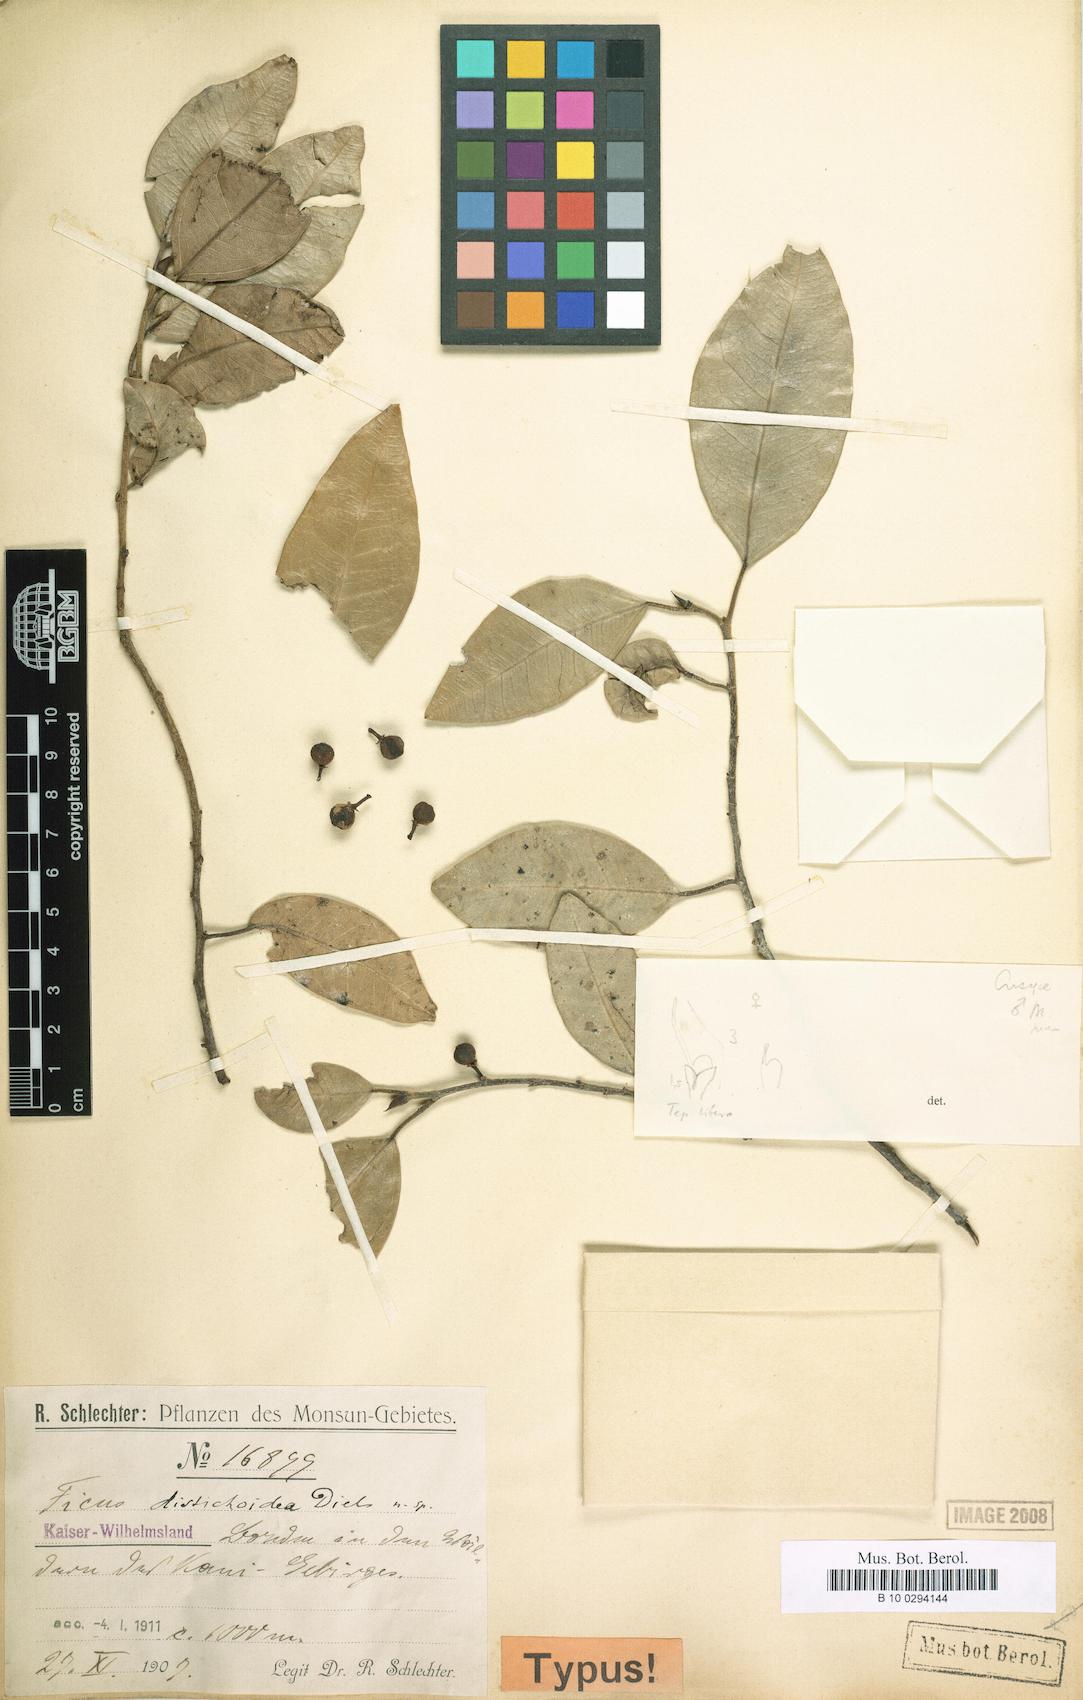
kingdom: Plantae
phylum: Tracheophyta
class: Magnoliopsida
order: Rosales
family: Moraceae
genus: Ficus
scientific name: Ficus distichoidea
